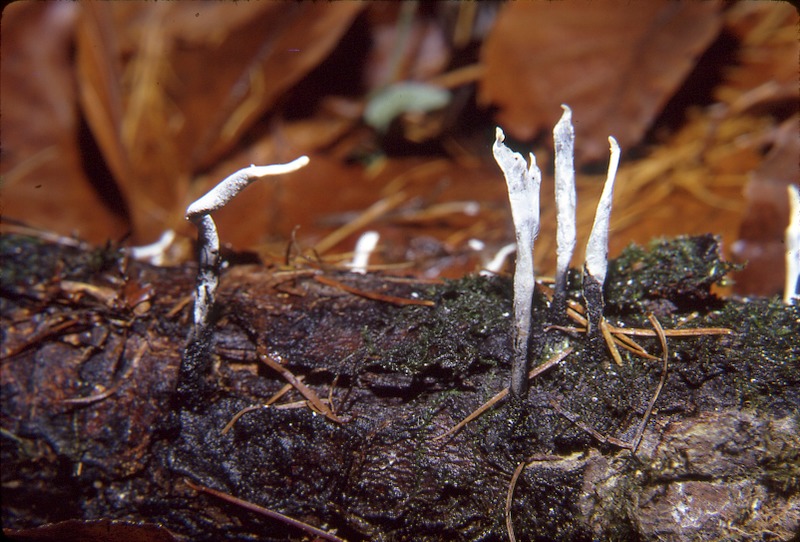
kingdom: Fungi
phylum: Ascomycota
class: Sordariomycetes
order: Xylariales
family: Xylariaceae
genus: Xylaria
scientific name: Xylaria hypoxylon
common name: Candle-snuff fungus
